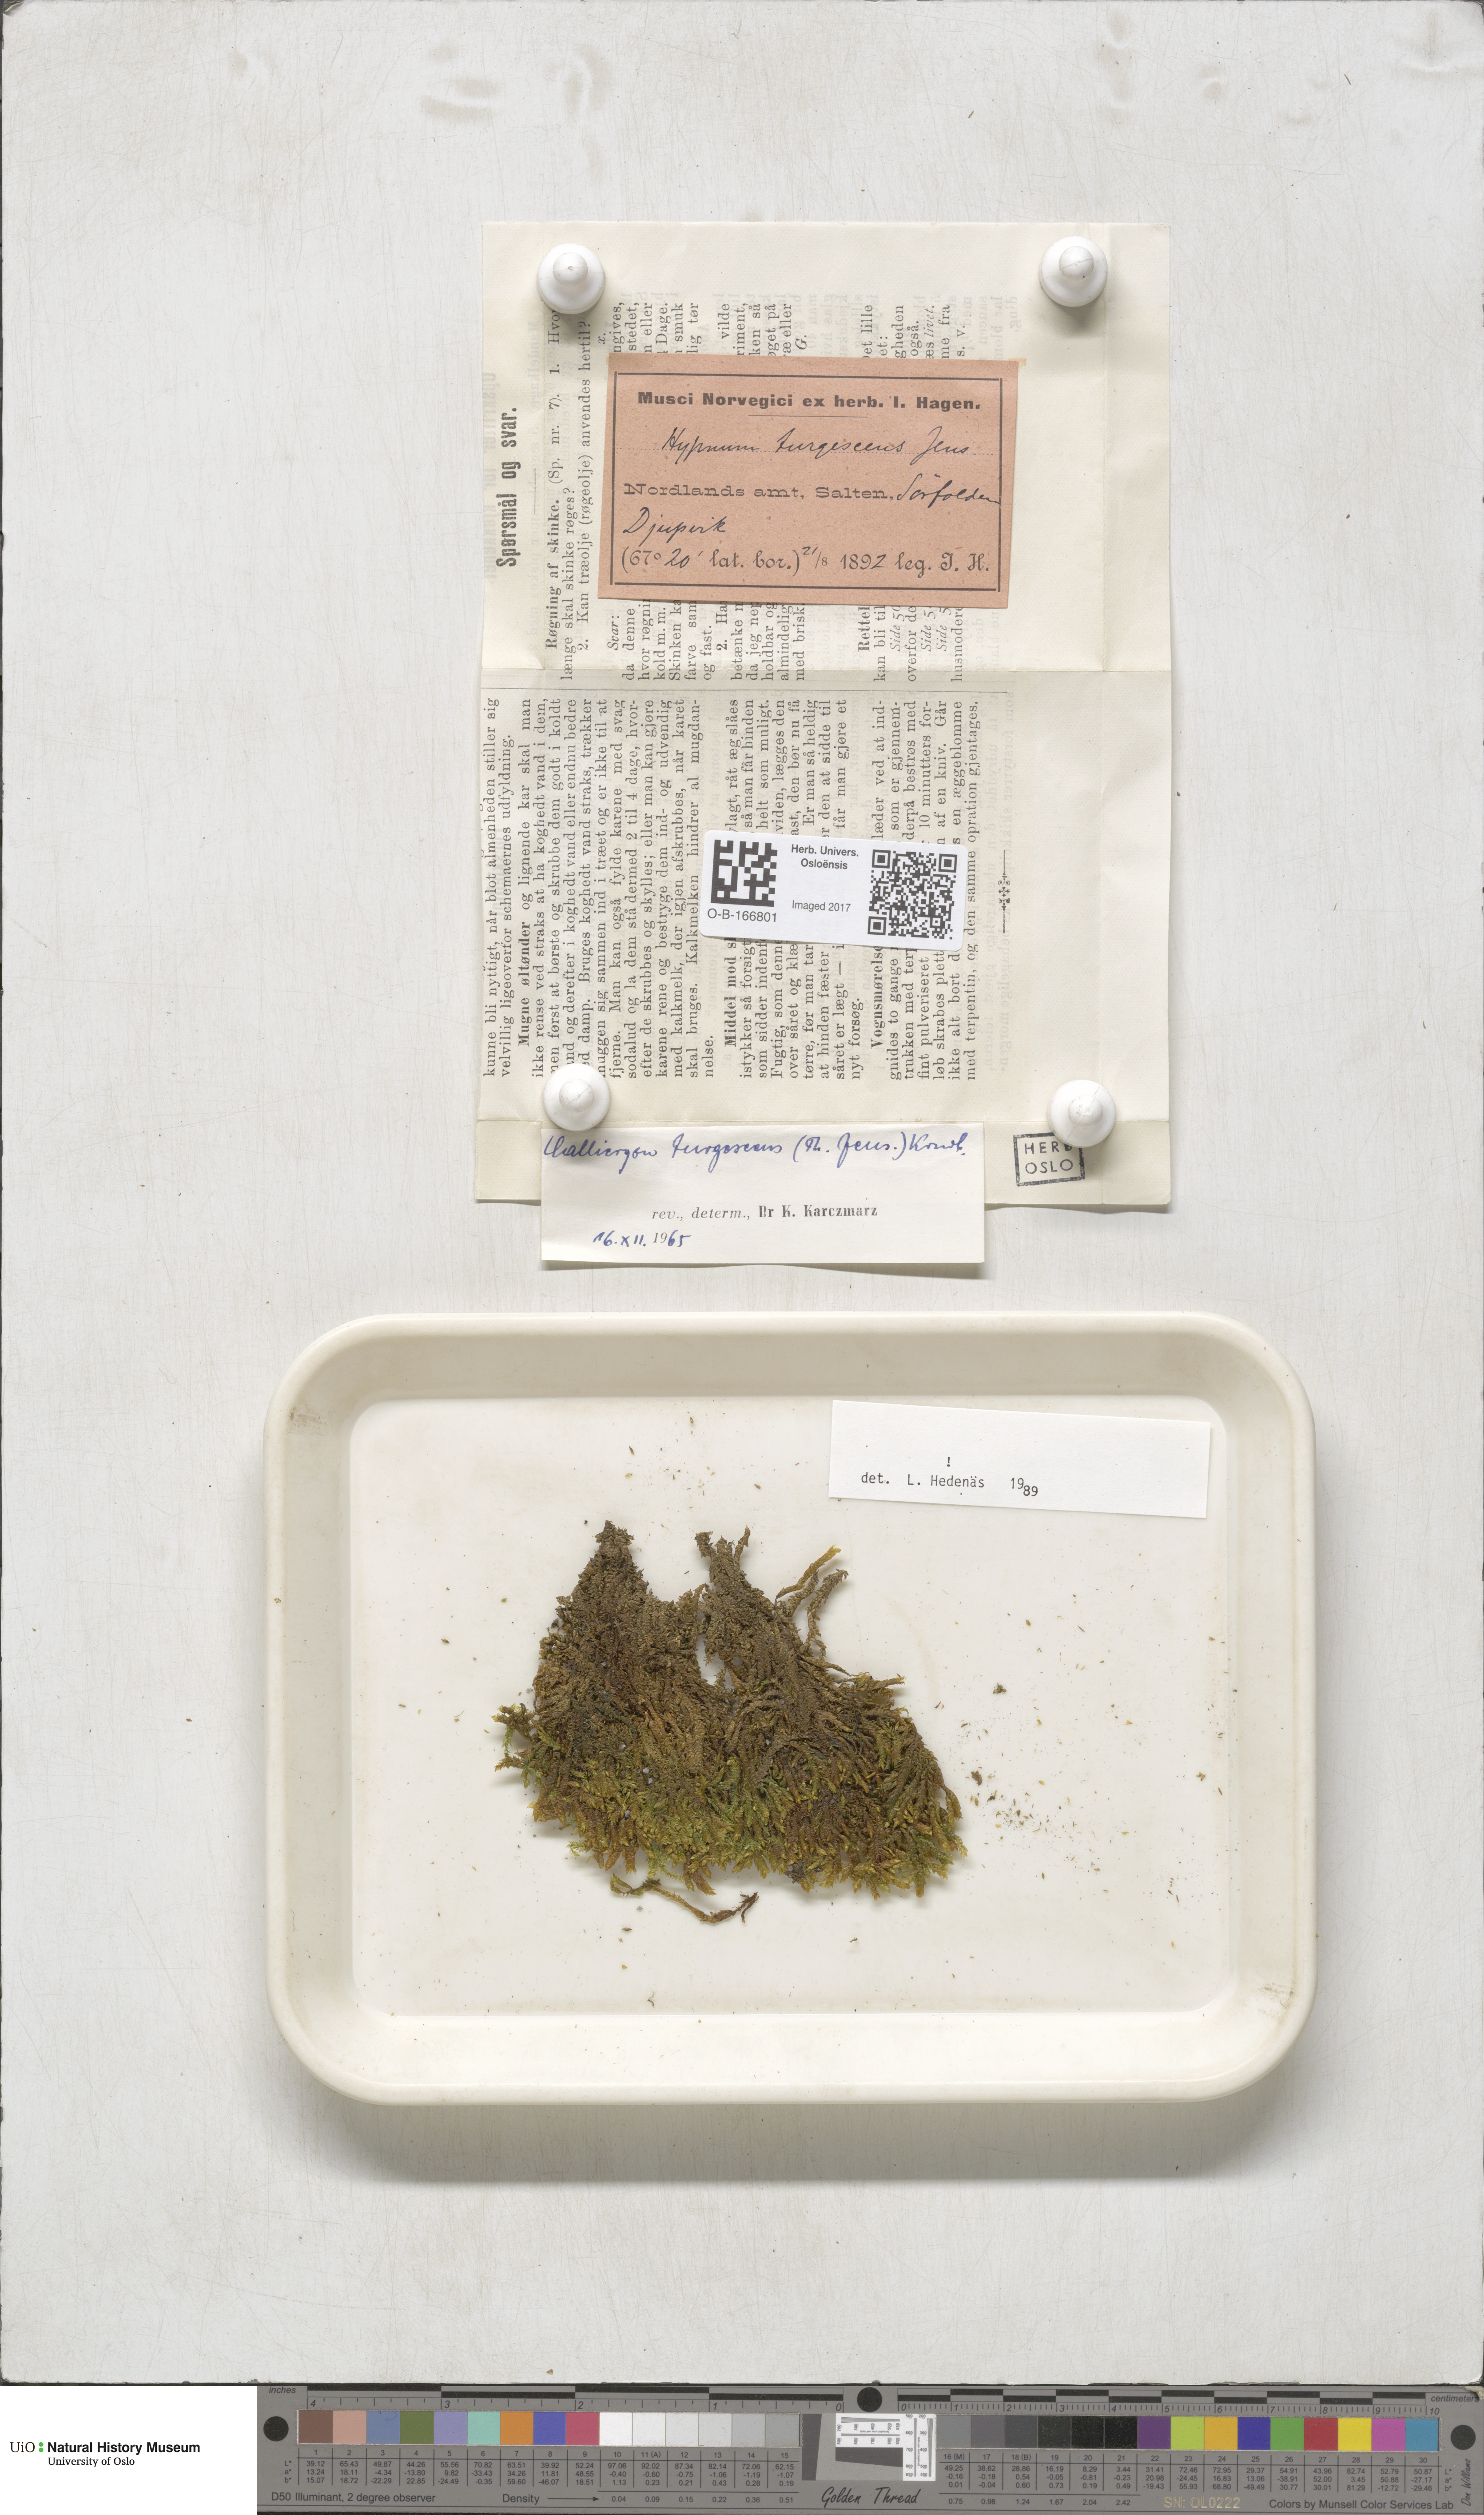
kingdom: Plantae
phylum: Bryophyta
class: Bryopsida
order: Hypnales
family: Amblystegiaceae
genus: Drepanocladus
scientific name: Drepanocladus turgescens
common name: Large yellow feather-moss
